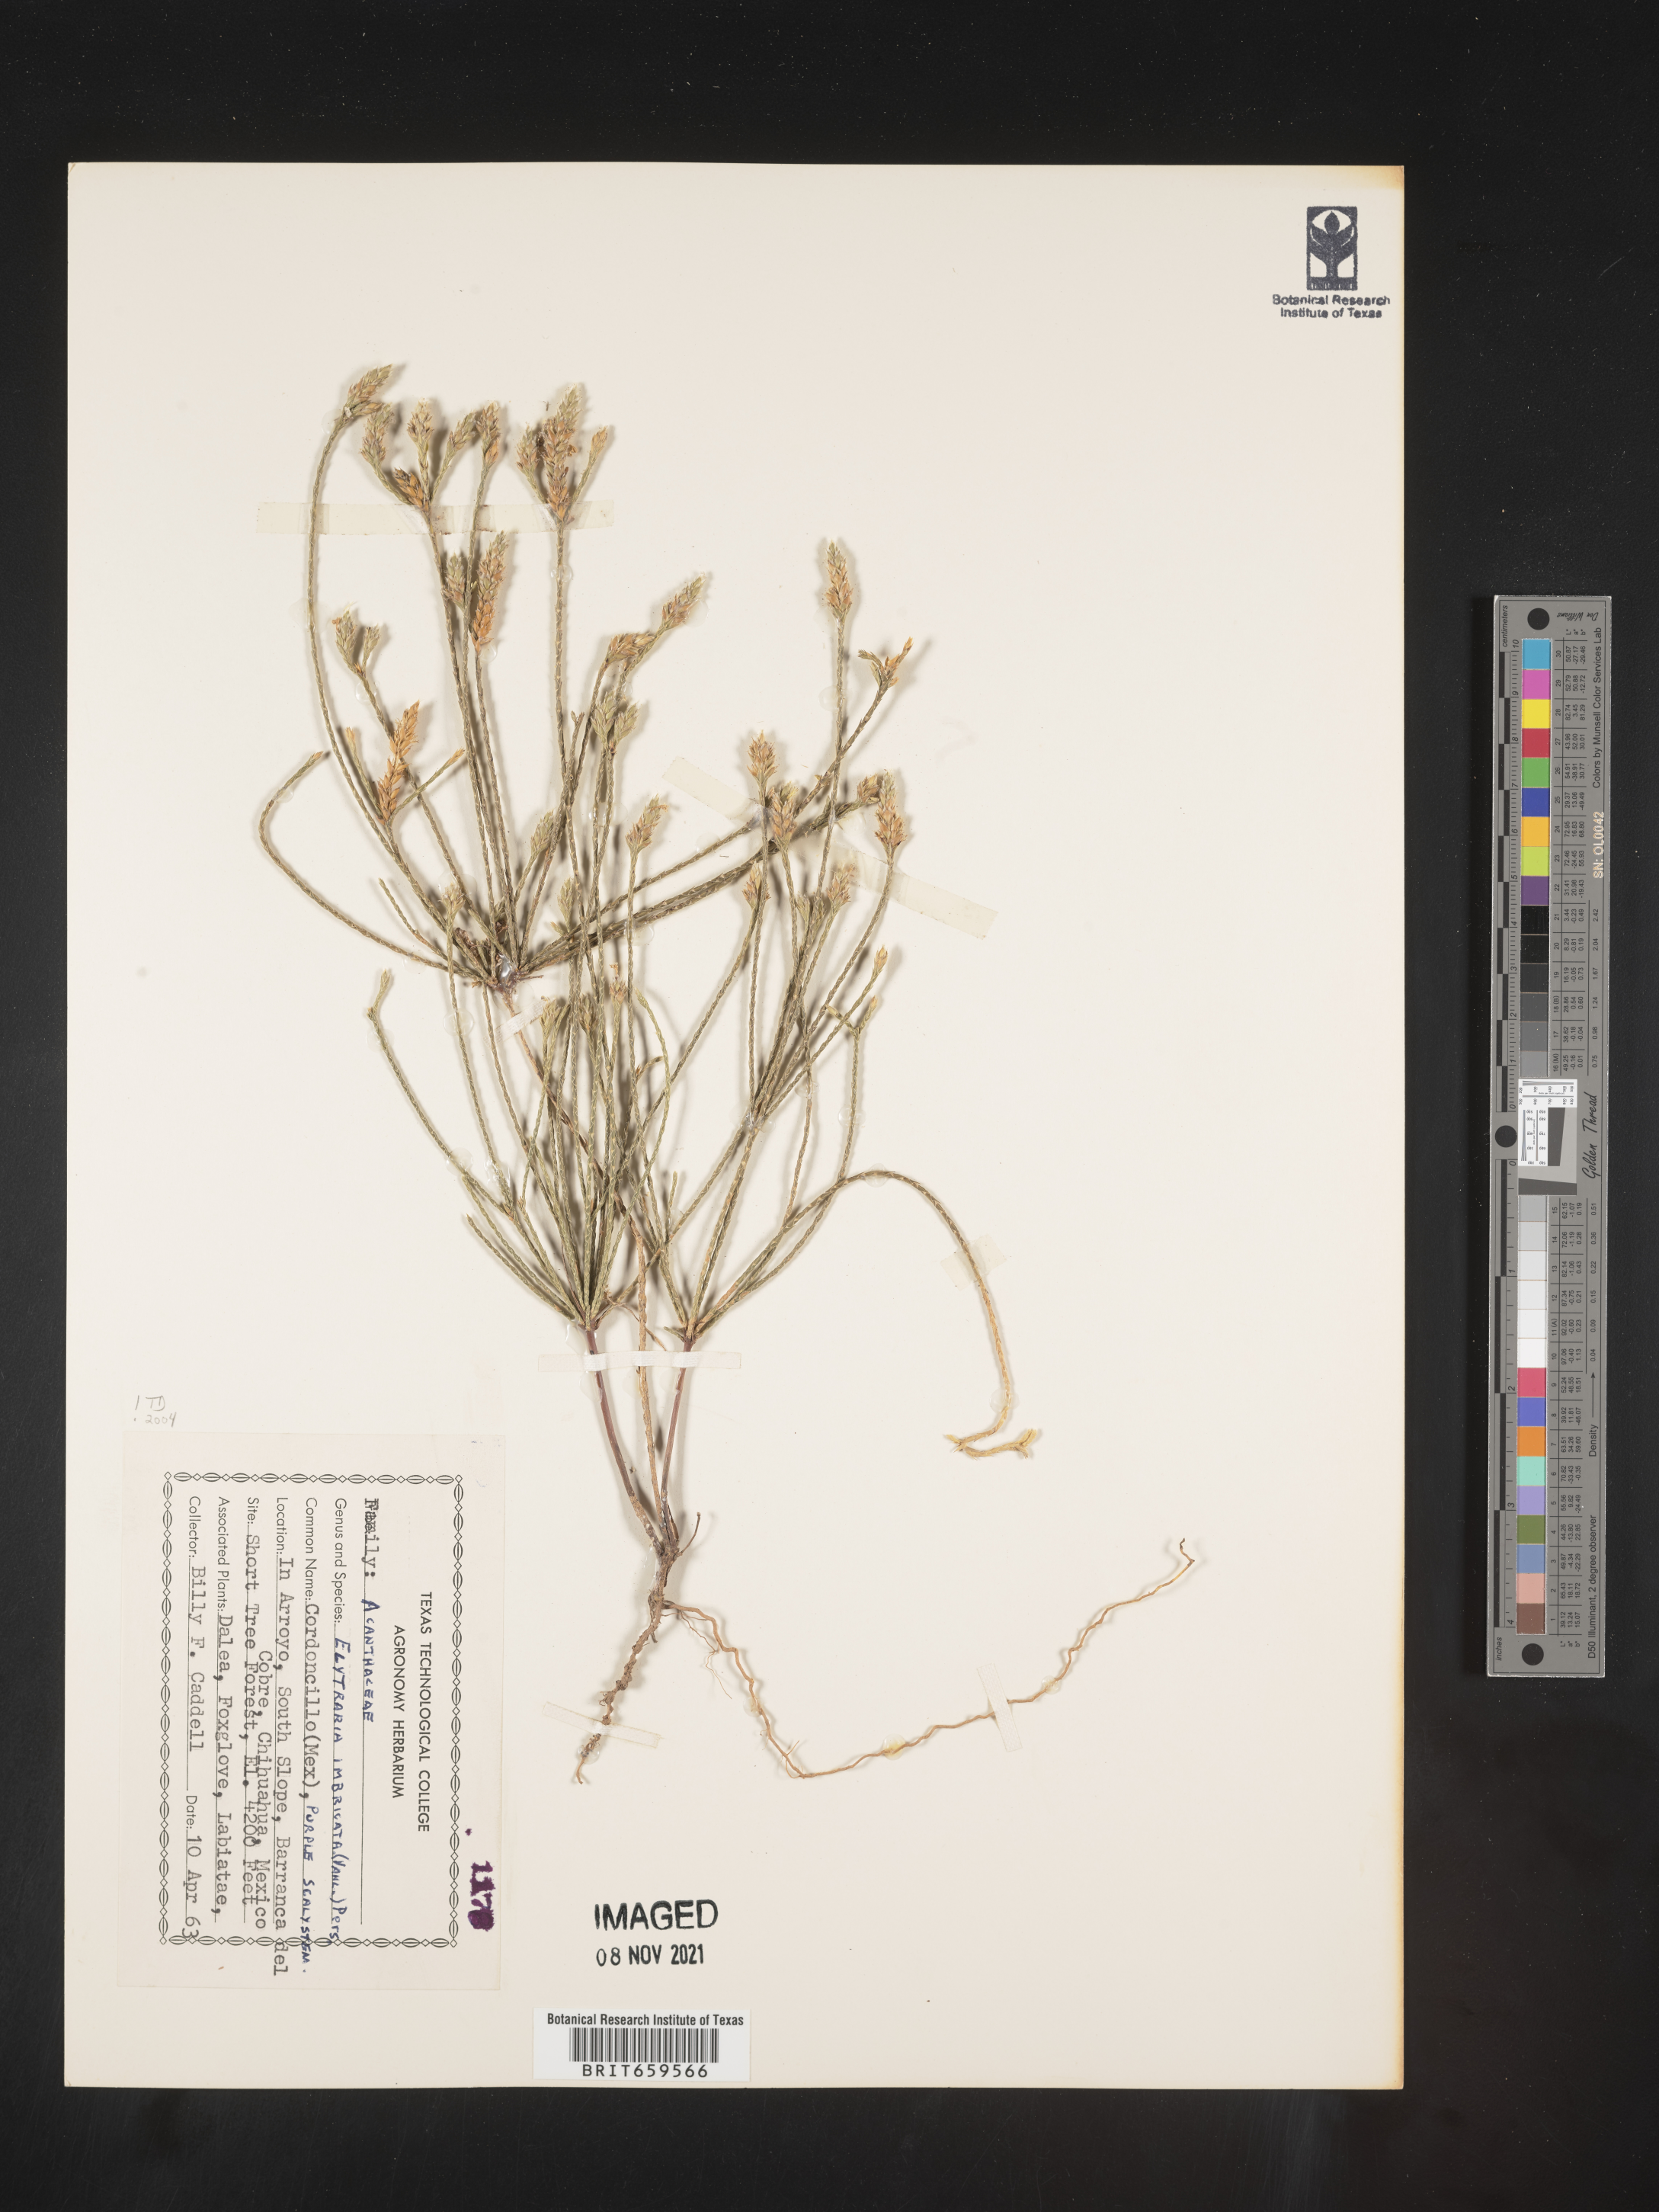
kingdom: Plantae
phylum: Tracheophyta
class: Magnoliopsida
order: Lamiales
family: Acanthaceae
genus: Elytraria
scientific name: Elytraria imbricata
